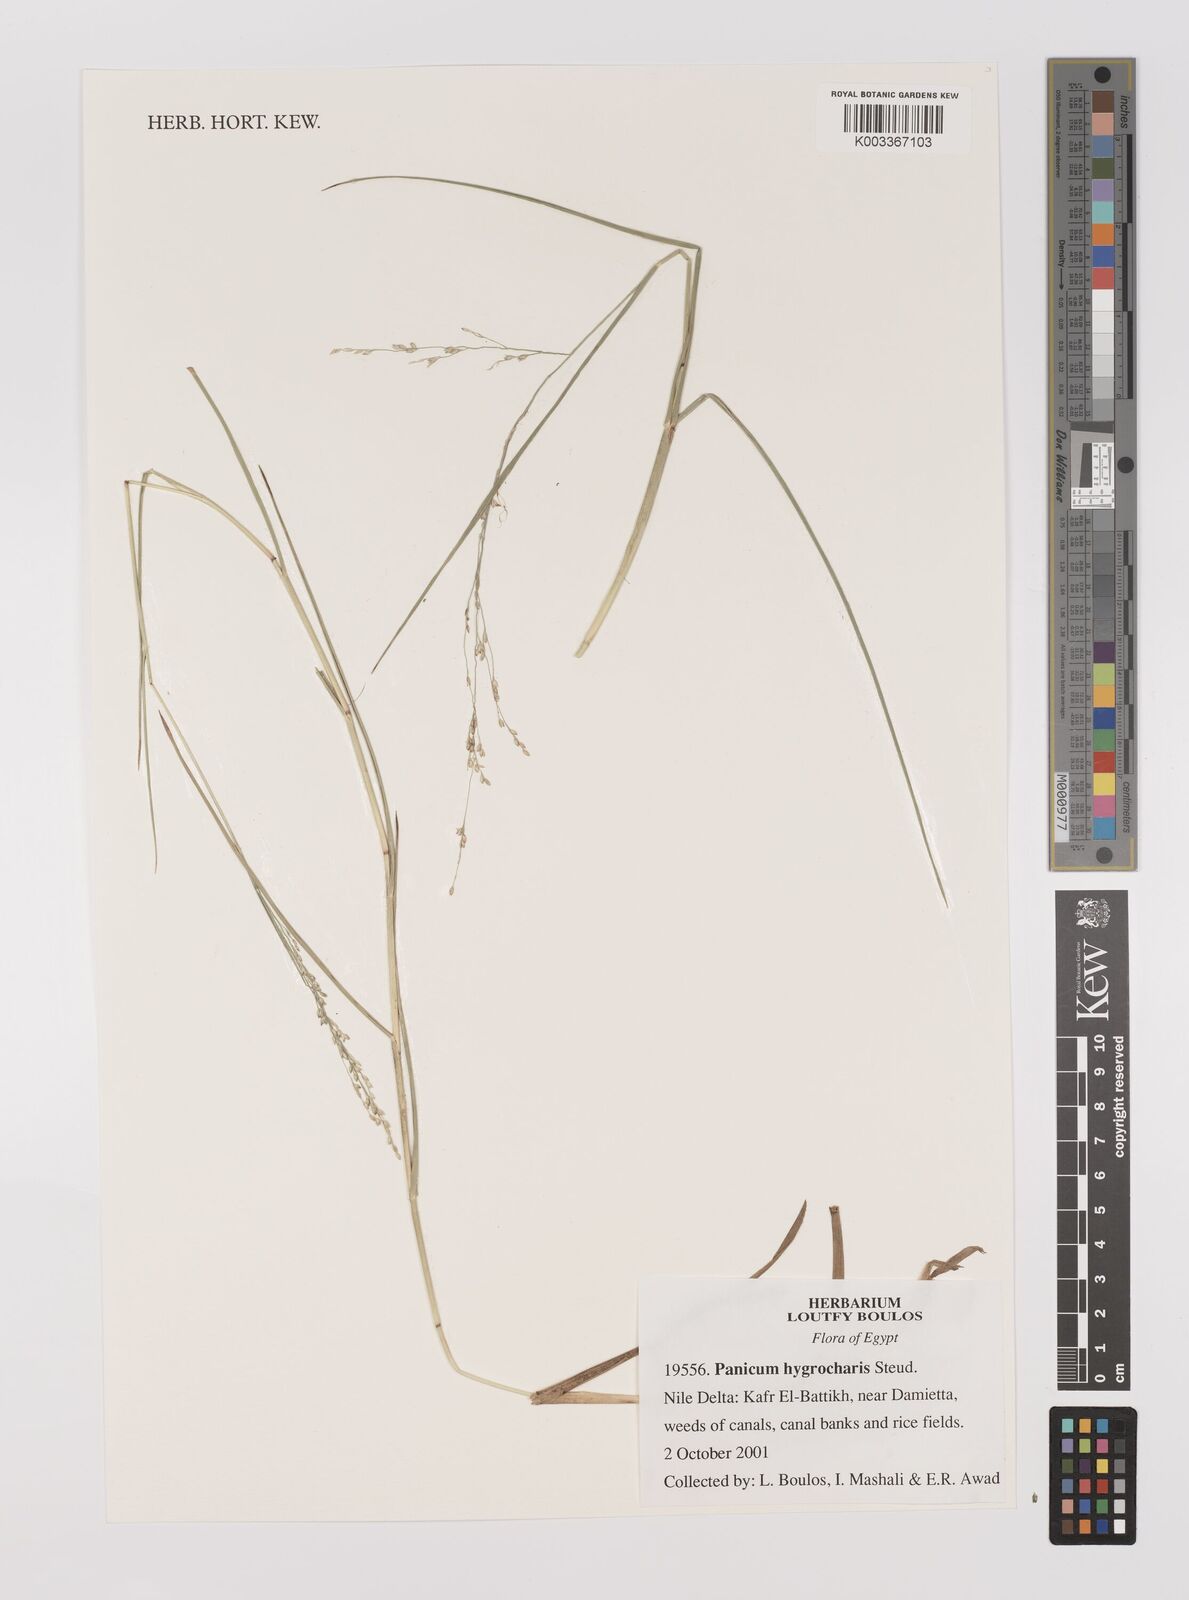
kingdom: Plantae
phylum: Tracheophyta
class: Liliopsida
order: Poales
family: Poaceae
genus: Panicum
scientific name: Panicum hygrocharis
